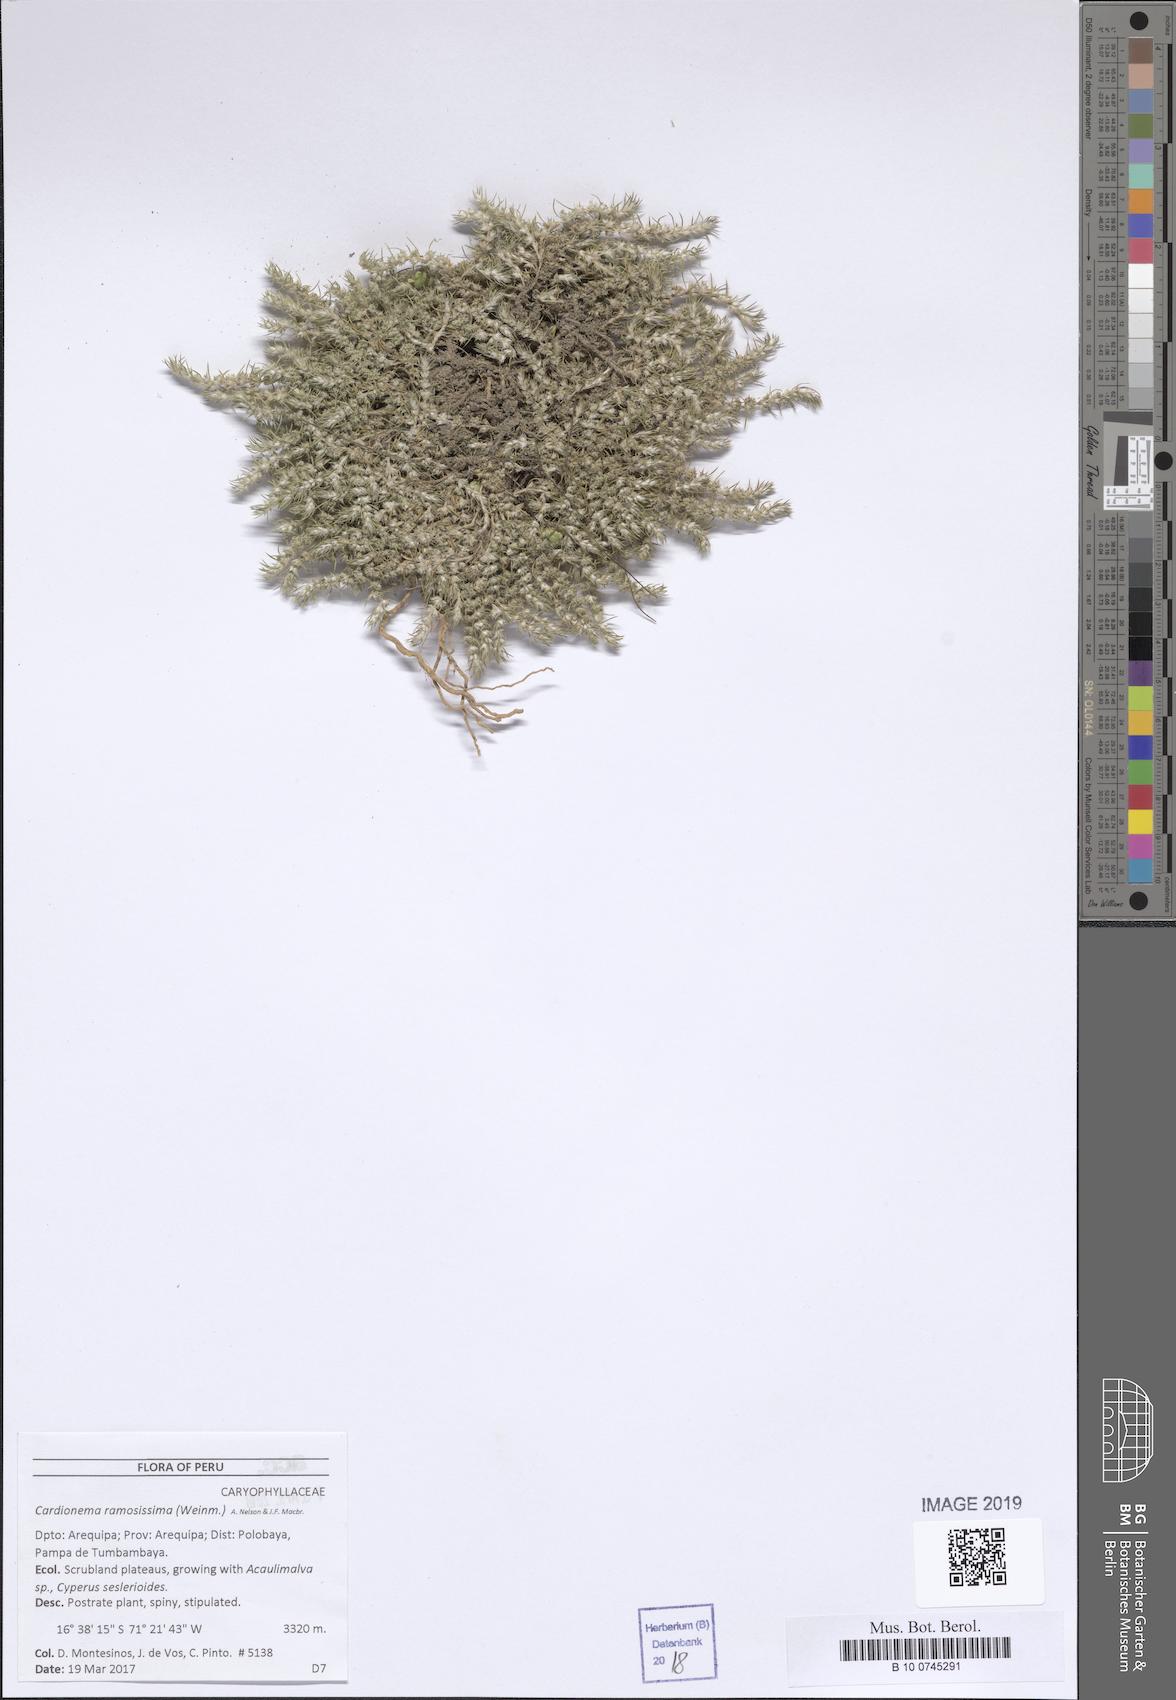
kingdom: Plantae
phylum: Tracheophyta
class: Magnoliopsida
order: Caryophyllales
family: Caryophyllaceae
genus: Cardionema
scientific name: Cardionema ramosissima
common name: Sandcarpet
